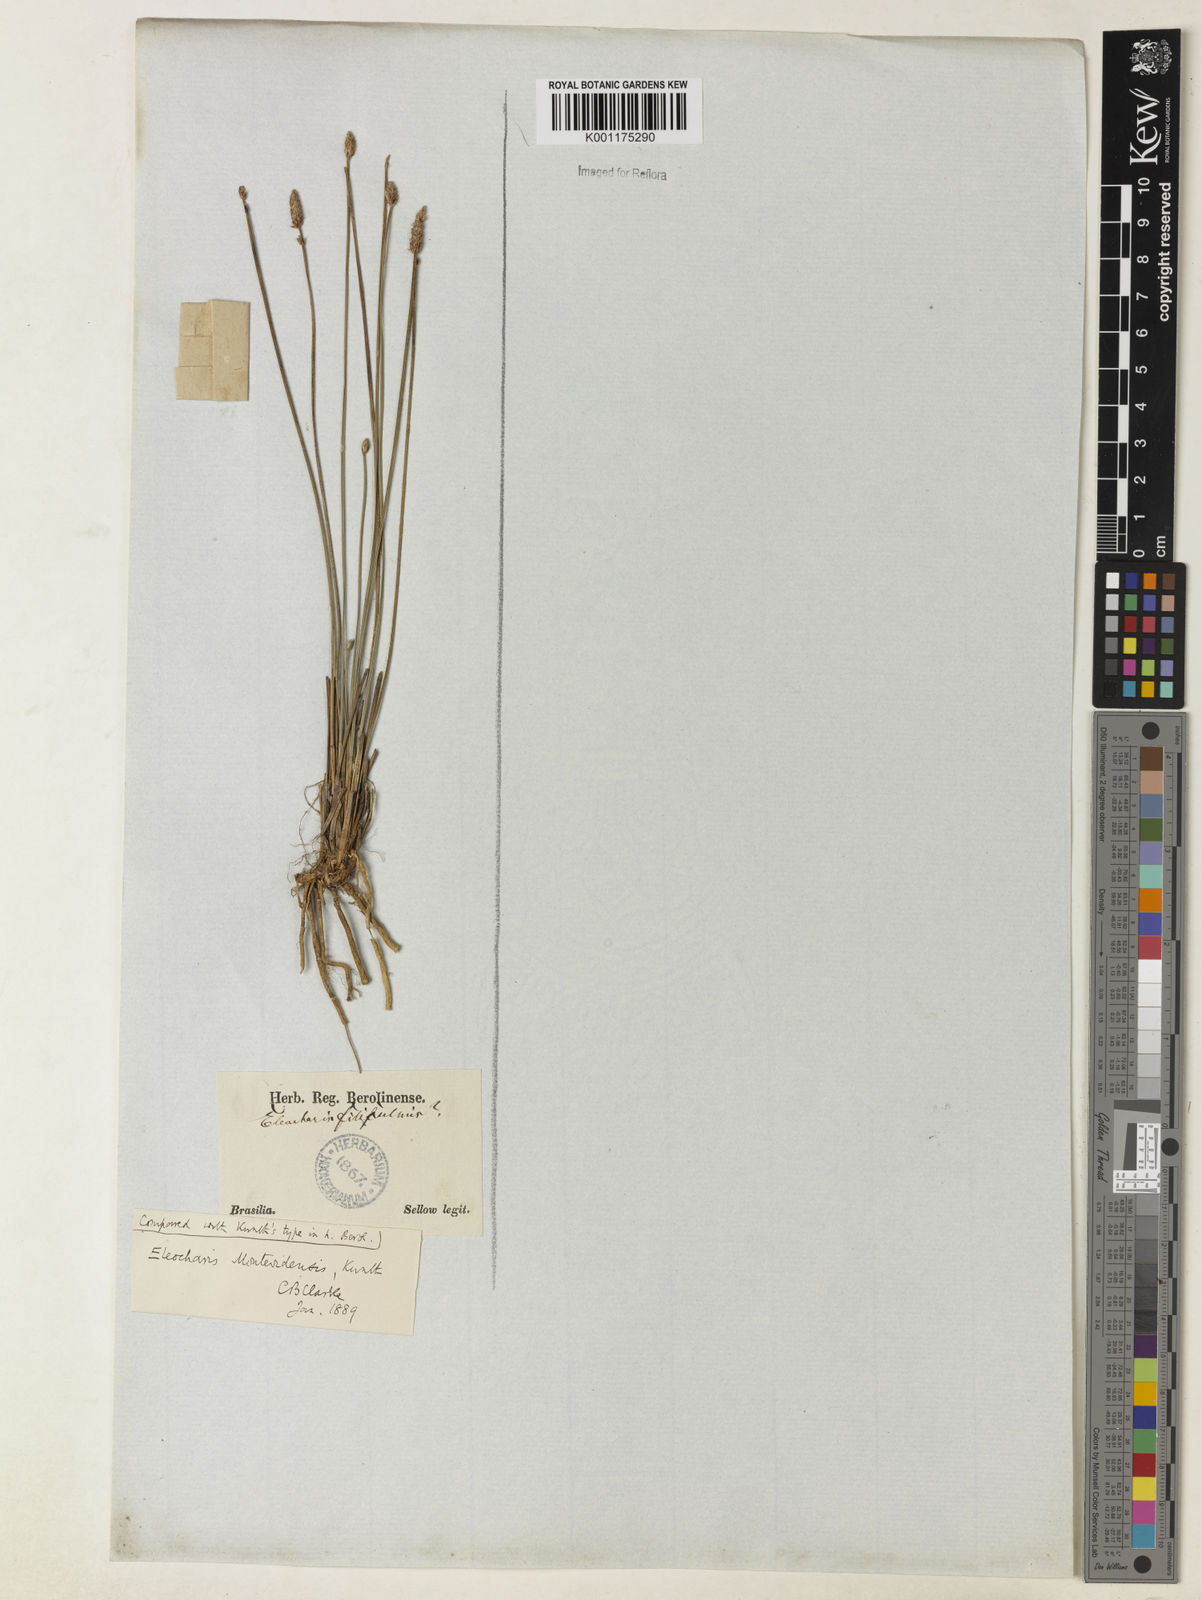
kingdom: Plantae
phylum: Tracheophyta
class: Liliopsida
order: Poales
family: Cyperaceae
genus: Eleocharis
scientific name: Eleocharis montevidensis
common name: Sand spike-rush
